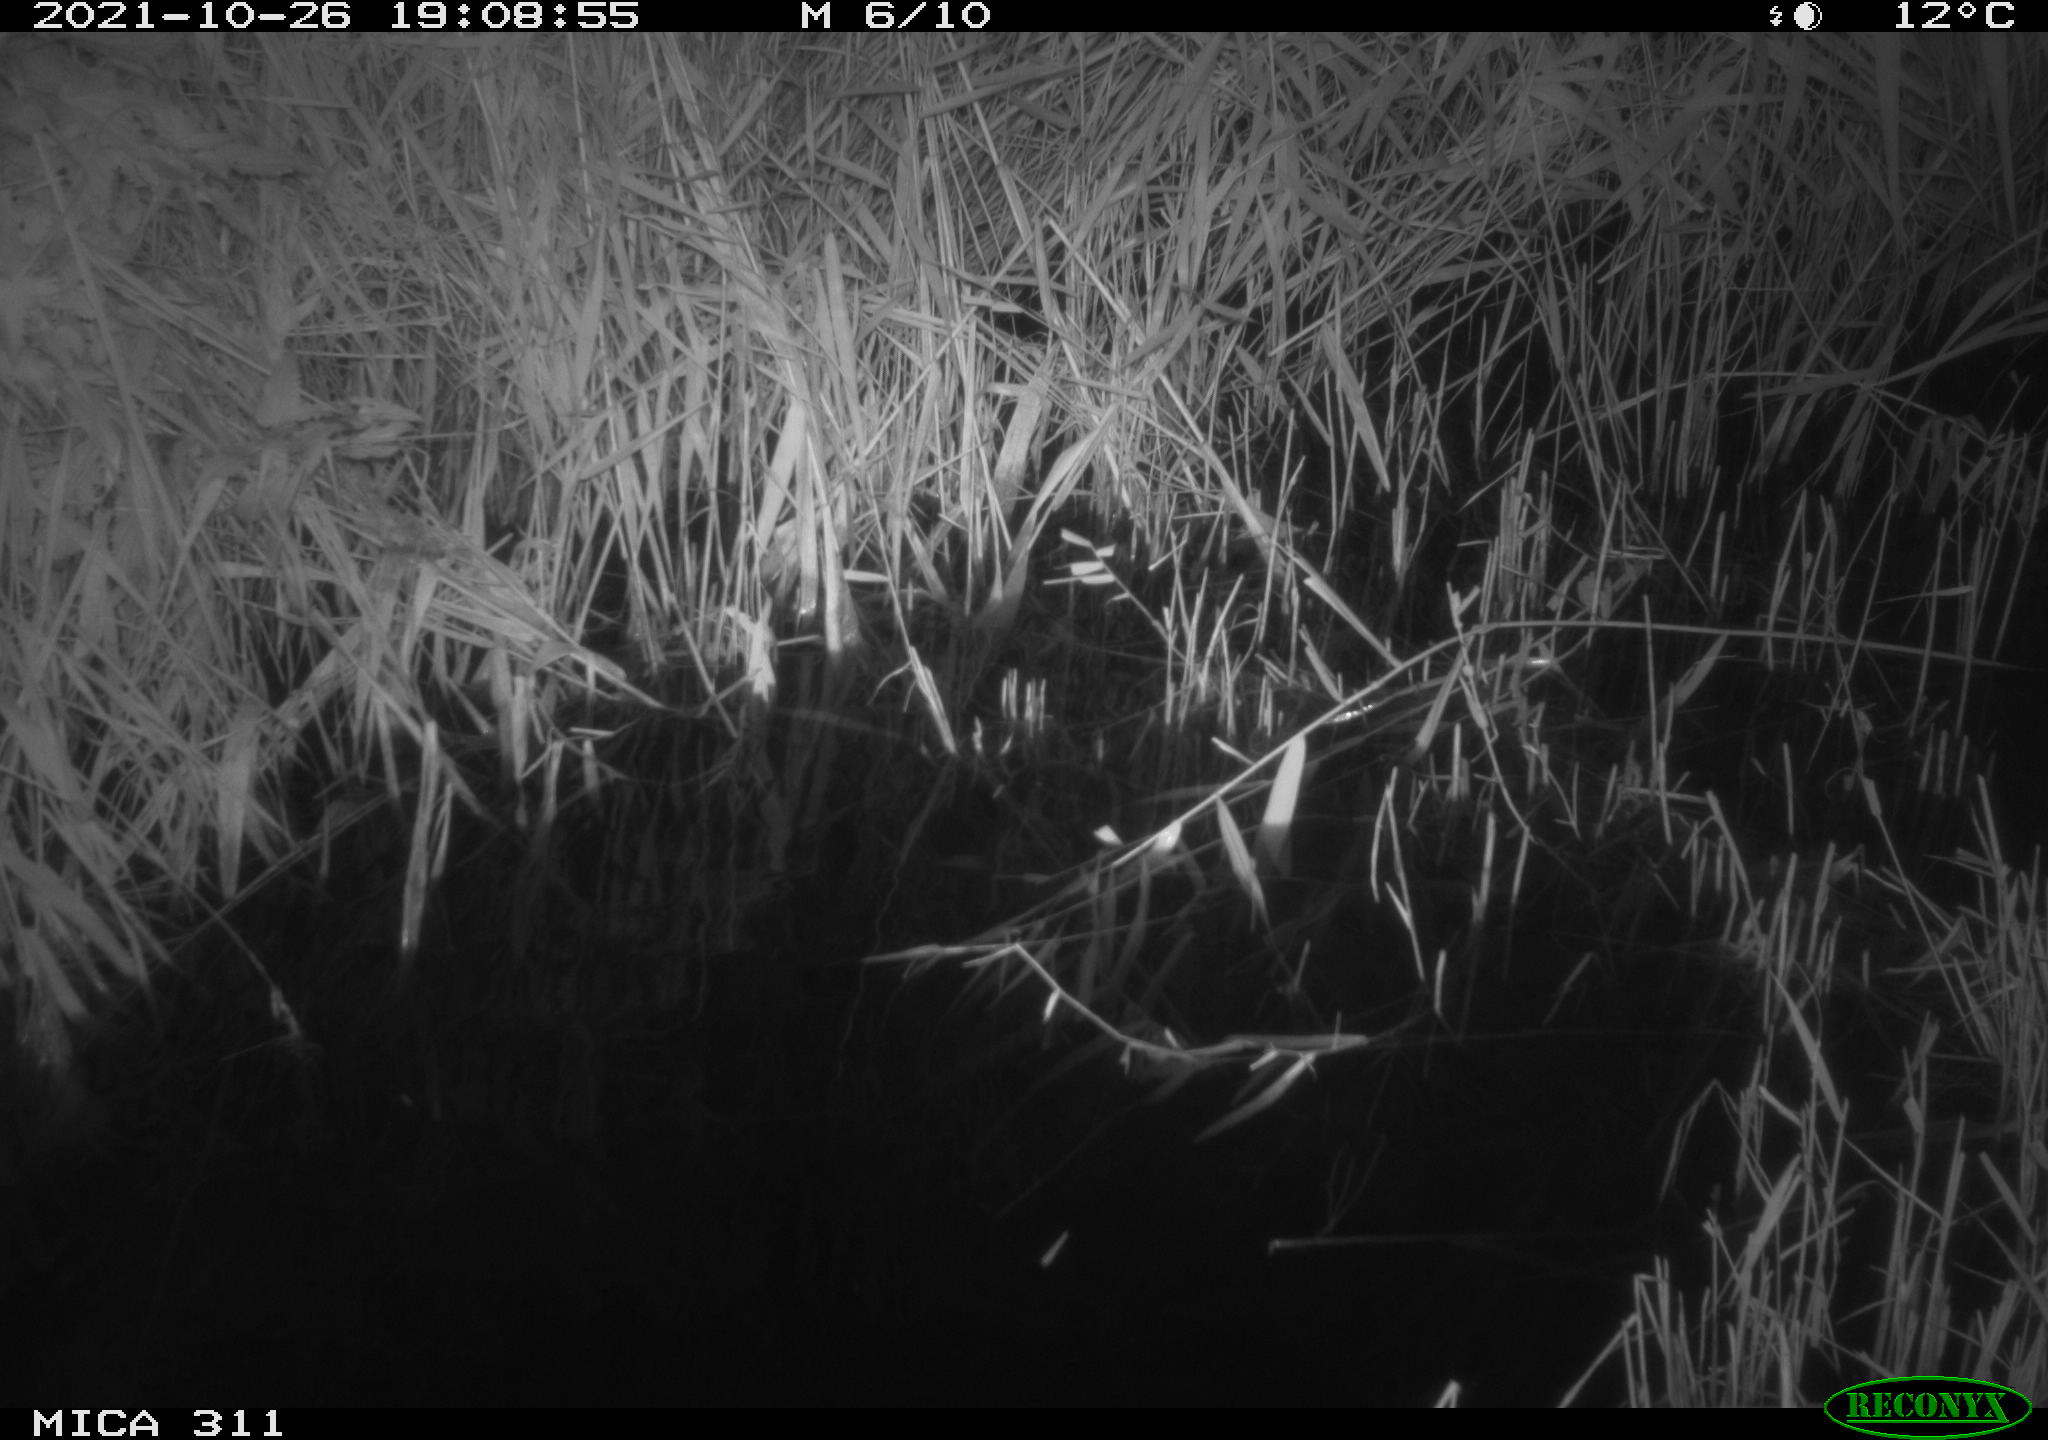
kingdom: Animalia
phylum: Chordata
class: Mammalia
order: Rodentia
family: Muridae
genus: Rattus
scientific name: Rattus norvegicus
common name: Brown rat
